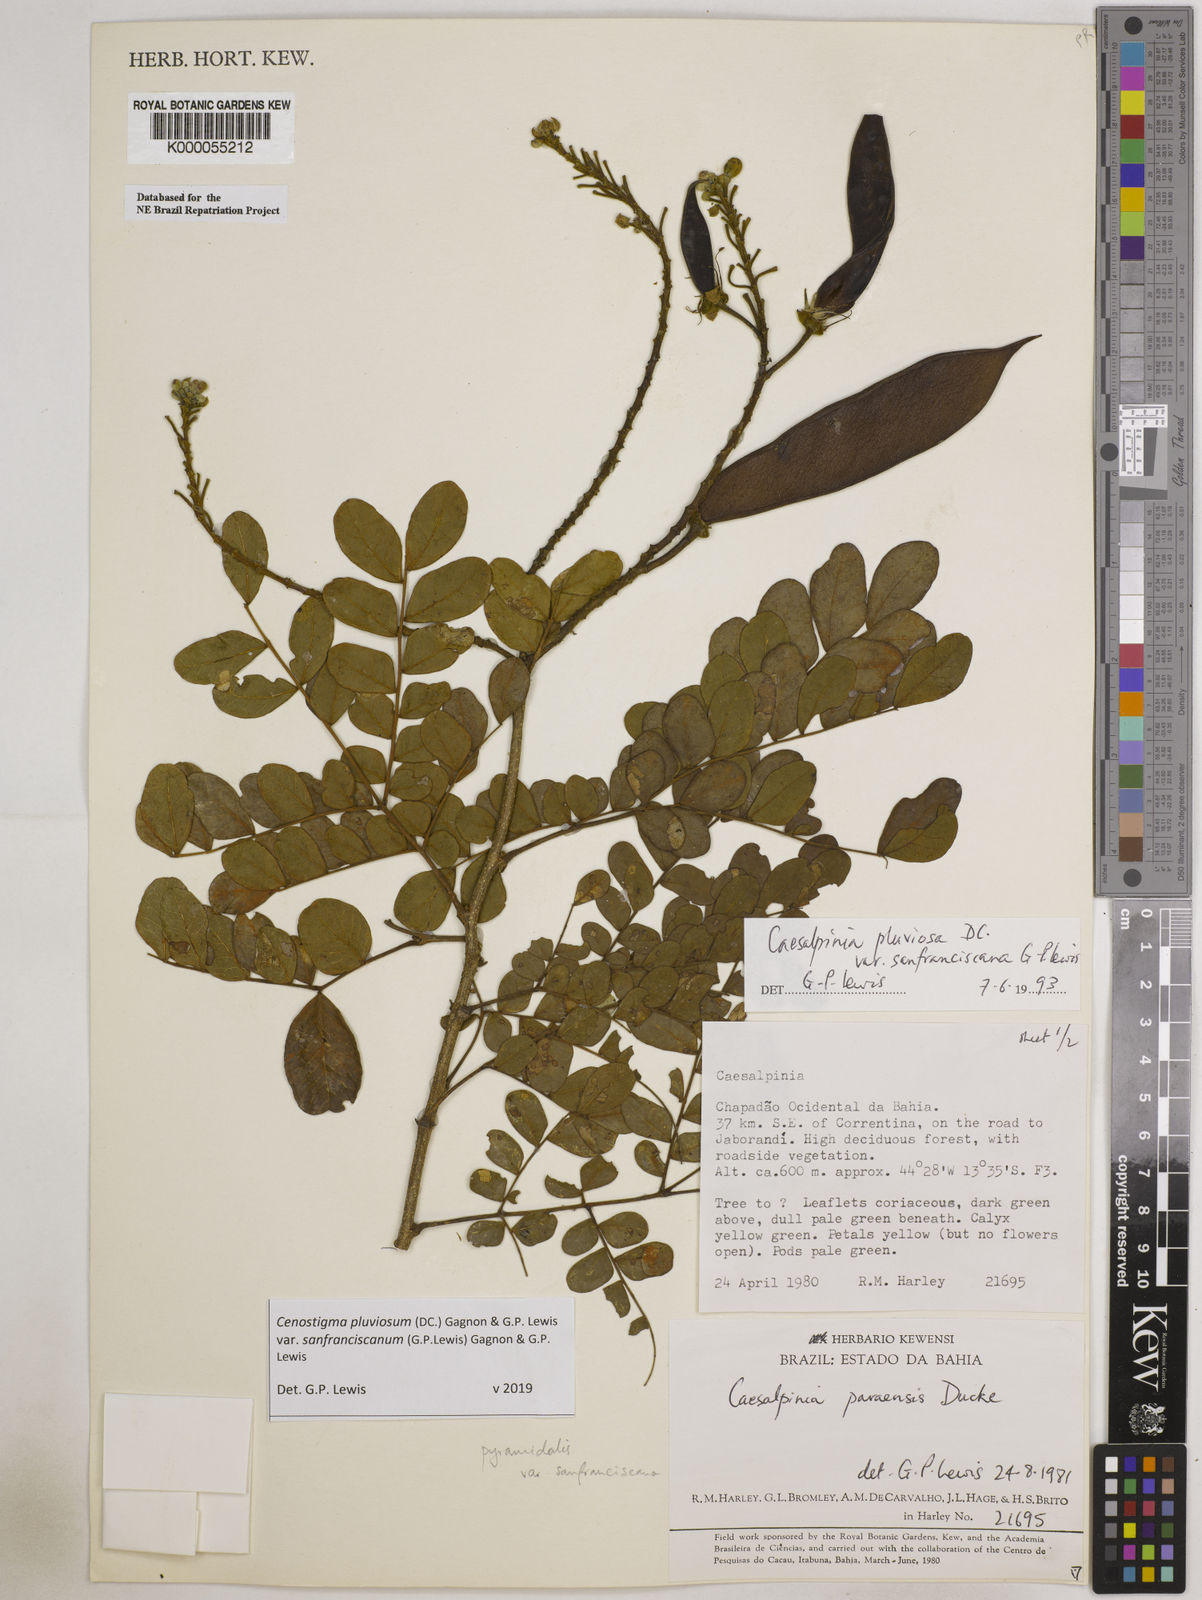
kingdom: Plantae
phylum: Tracheophyta
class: Magnoliopsida
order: Fabales
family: Fabaceae
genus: Cenostigma
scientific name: Cenostigma pluviosum
